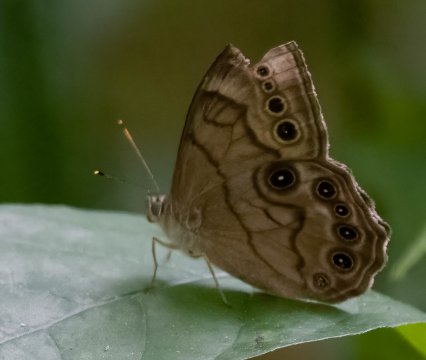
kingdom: Animalia
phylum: Arthropoda
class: Insecta
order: Lepidoptera
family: Nymphalidae
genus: Lethe
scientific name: Lethe anthedon
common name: Northern Pearly-Eye
